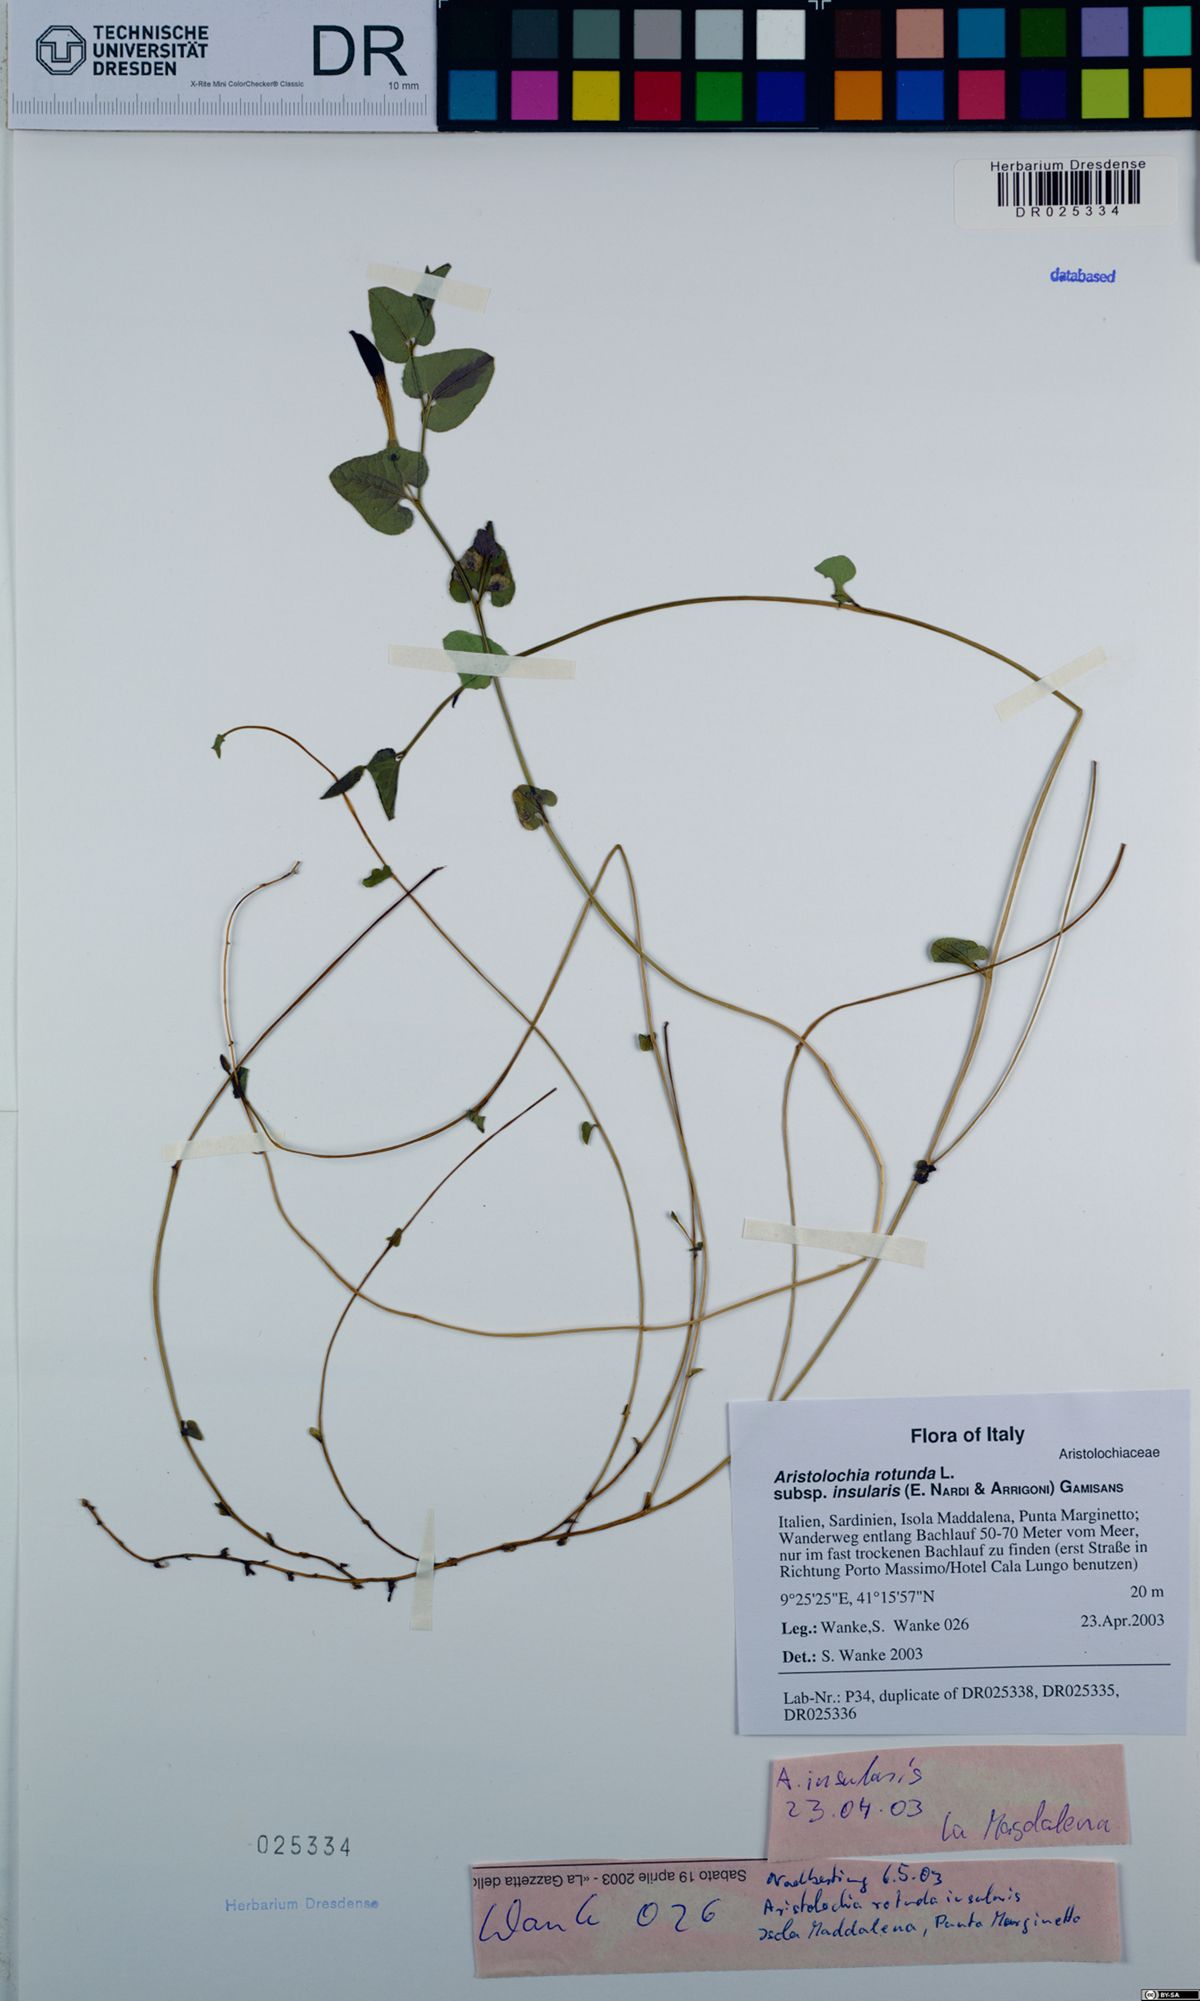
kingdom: Plantae
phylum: Tracheophyta
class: Magnoliopsida
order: Piperales
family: Aristolochiaceae
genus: Aristolochia
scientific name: Aristolochia rotunda
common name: Smearwort
